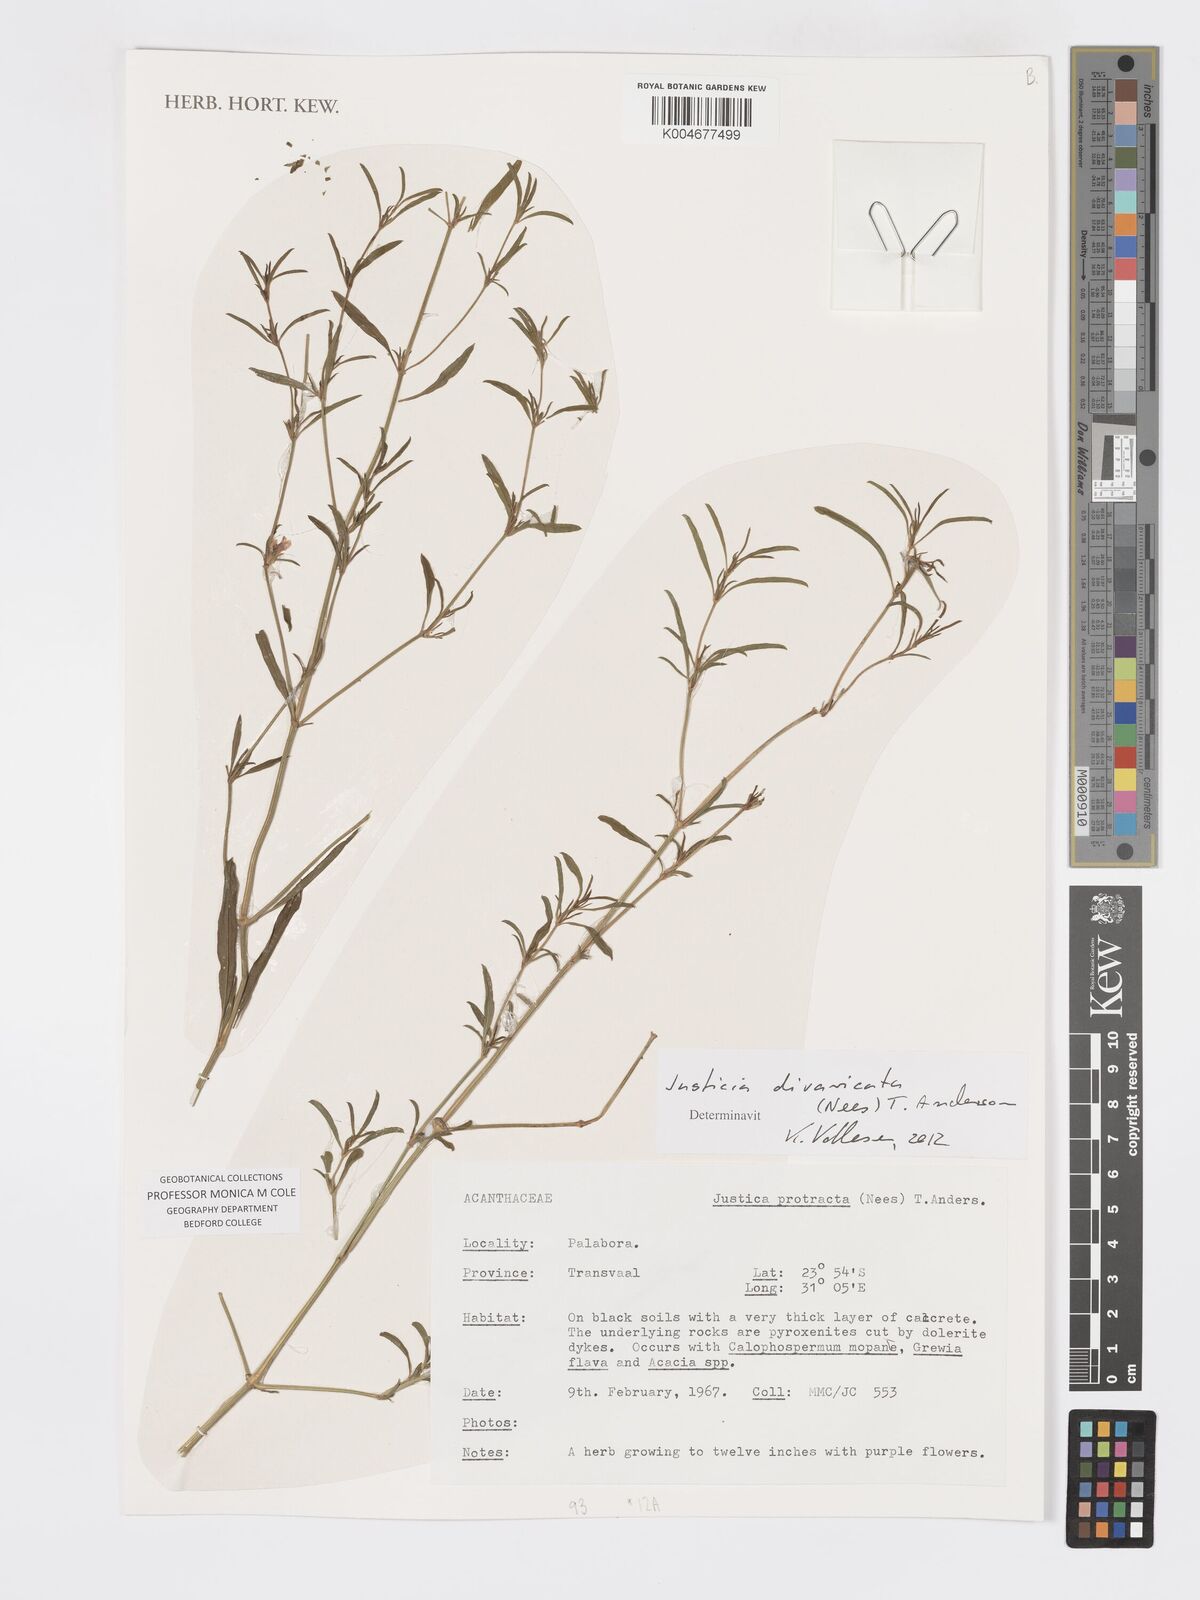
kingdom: Plantae
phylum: Tracheophyta
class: Magnoliopsida
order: Lamiales
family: Acanthaceae
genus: Pogonospermum
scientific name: Pogonospermum
